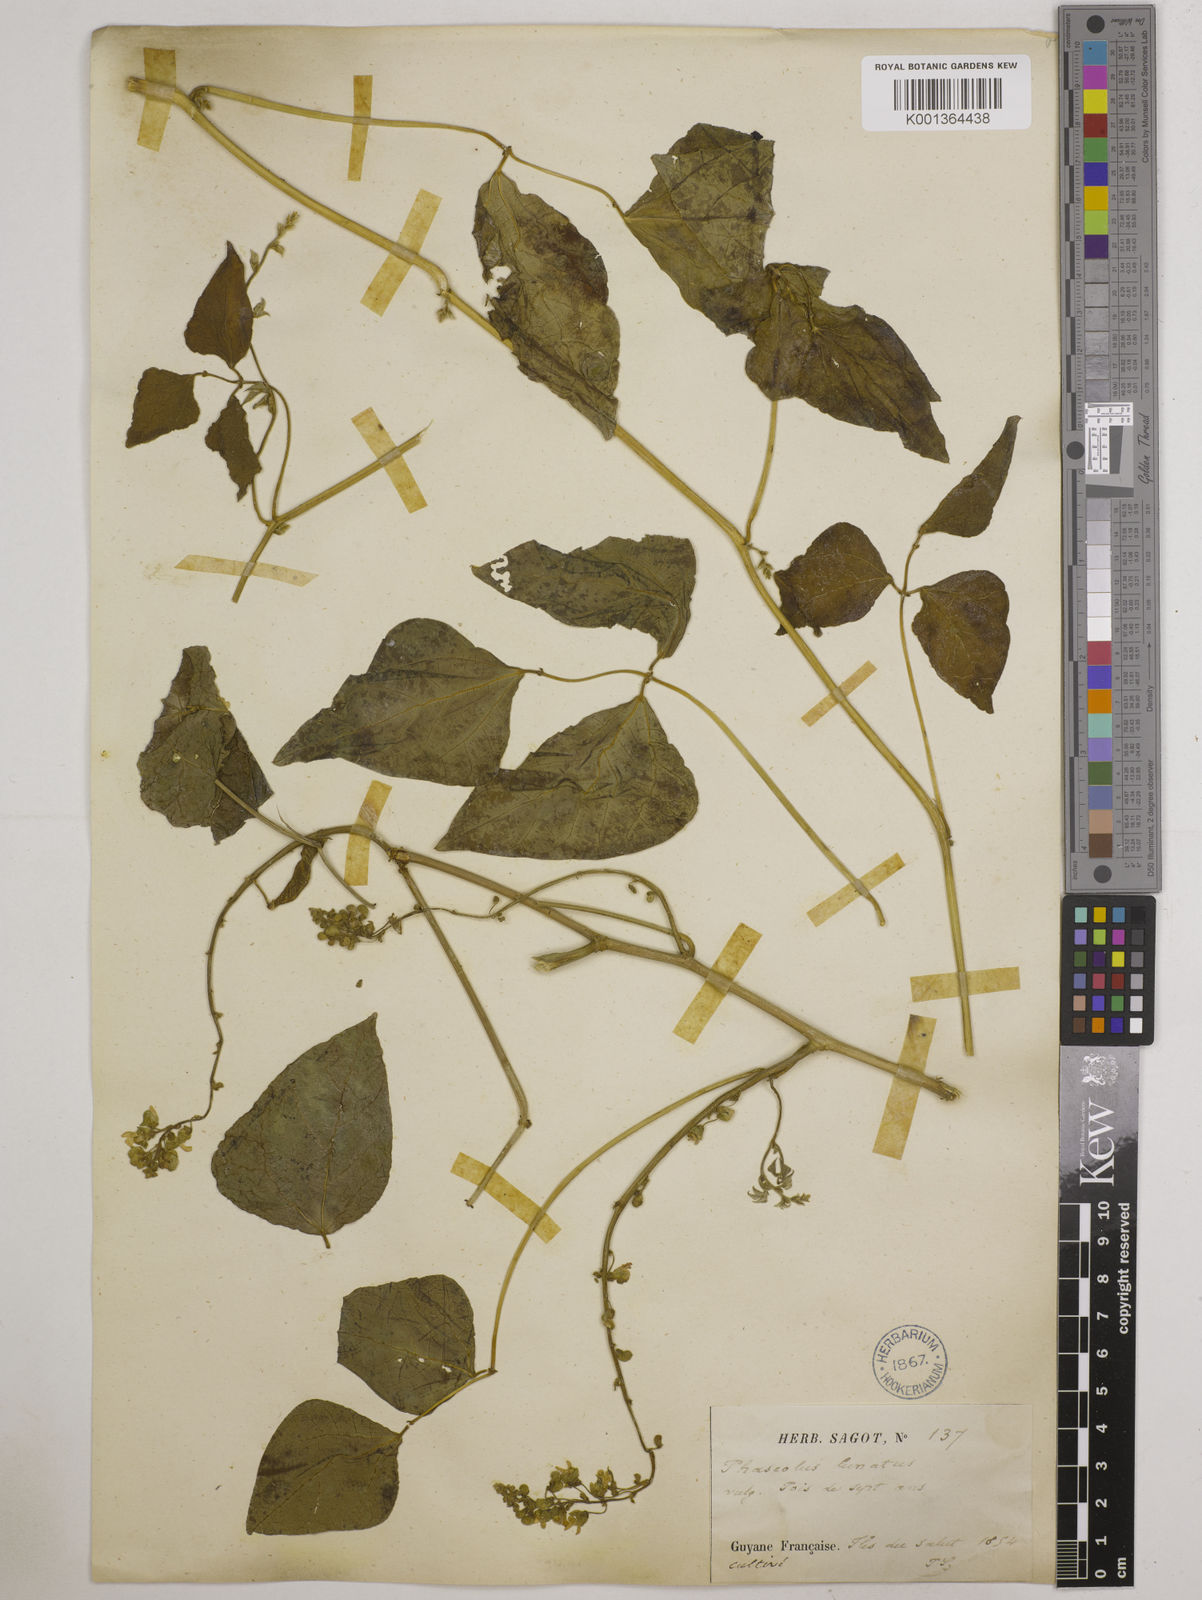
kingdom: Plantae
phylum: Tracheophyta
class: Magnoliopsida
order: Fabales
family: Fabaceae
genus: Phaseolus
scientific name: Phaseolus lunatus
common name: Sieva bean
